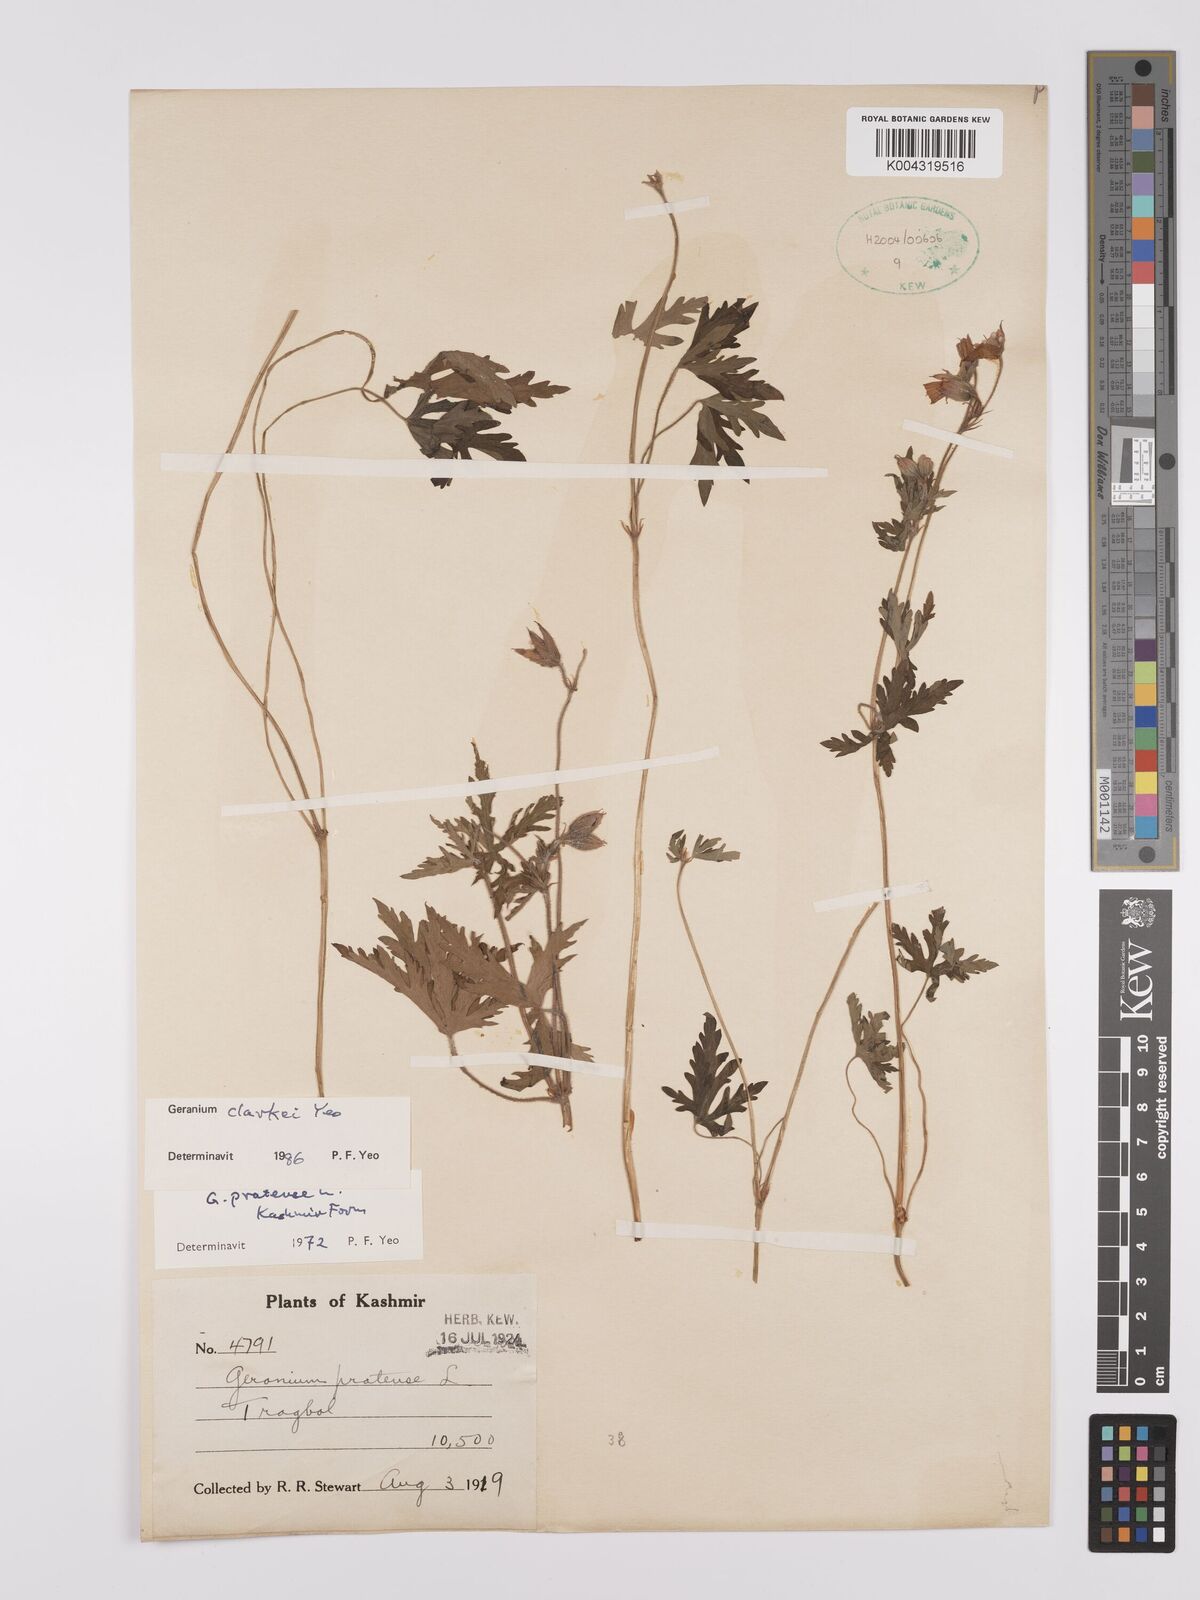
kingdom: Plantae
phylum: Tracheophyta
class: Magnoliopsida
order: Geraniales
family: Geraniaceae
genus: Geranium
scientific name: Geranium clarkei
